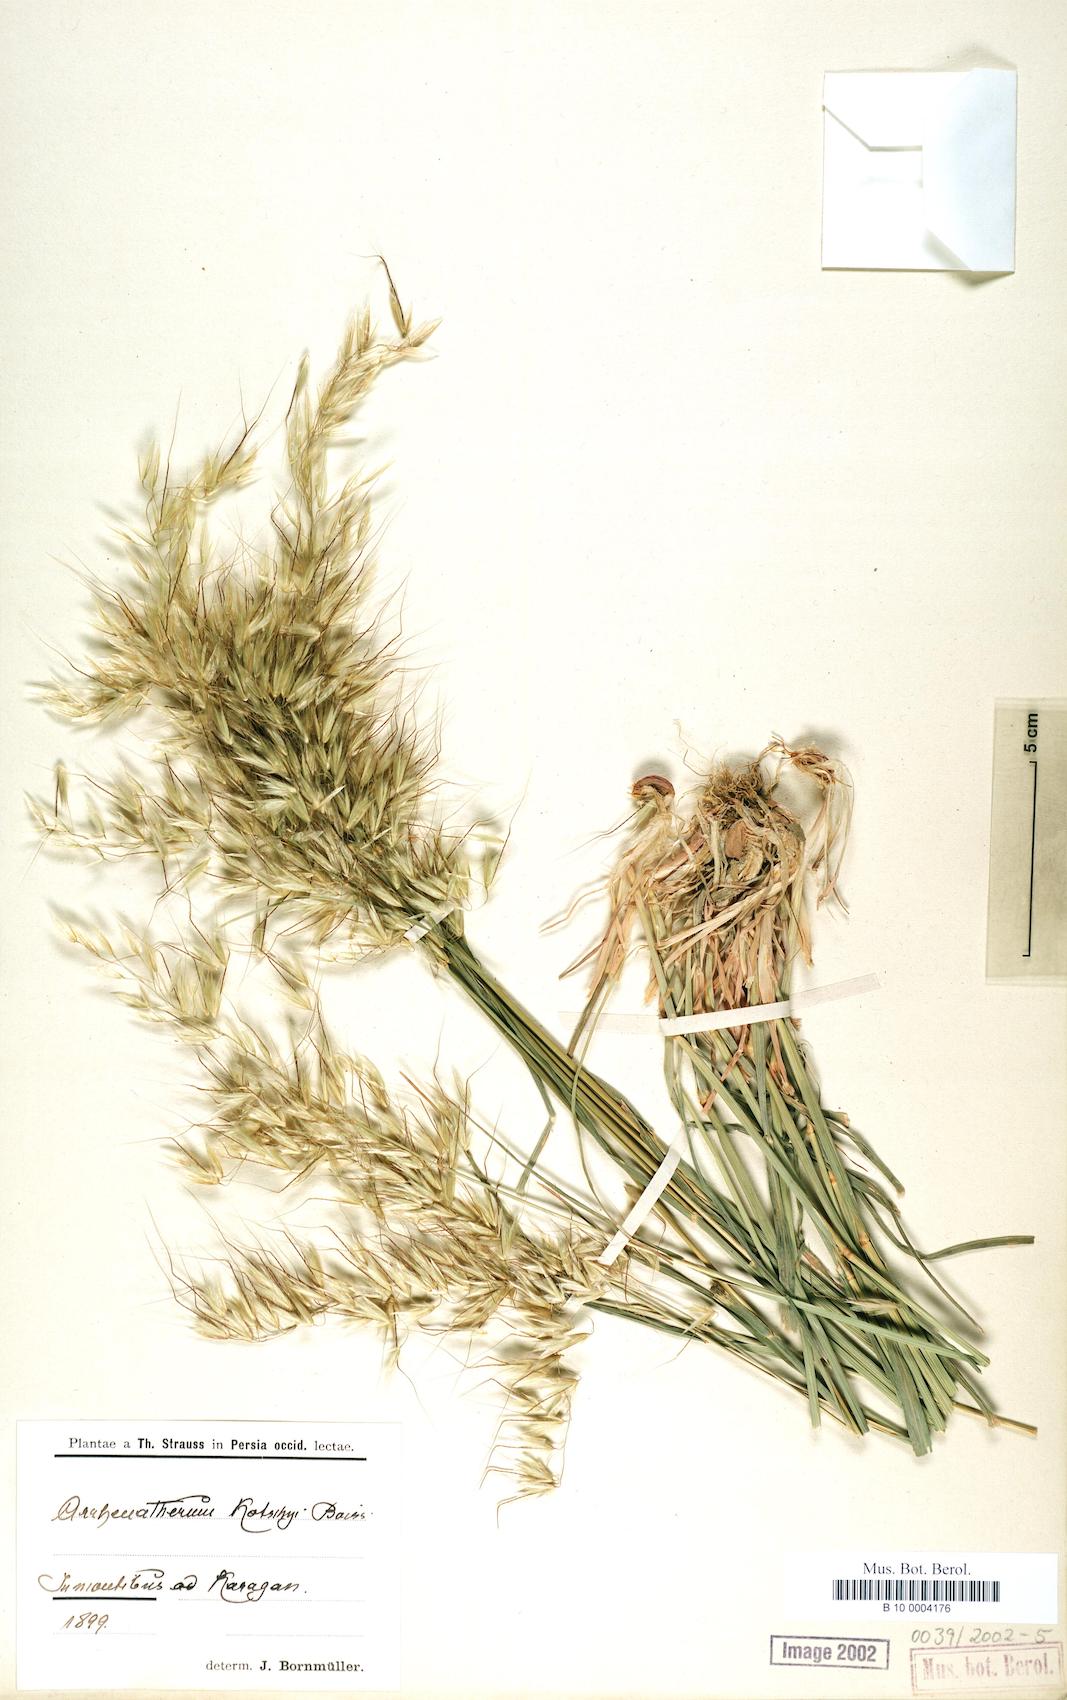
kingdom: Plantae
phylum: Tracheophyta
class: Liliopsida
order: Poales
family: Poaceae
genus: Arrhenatherum
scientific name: Arrhenatherum kotschyi
